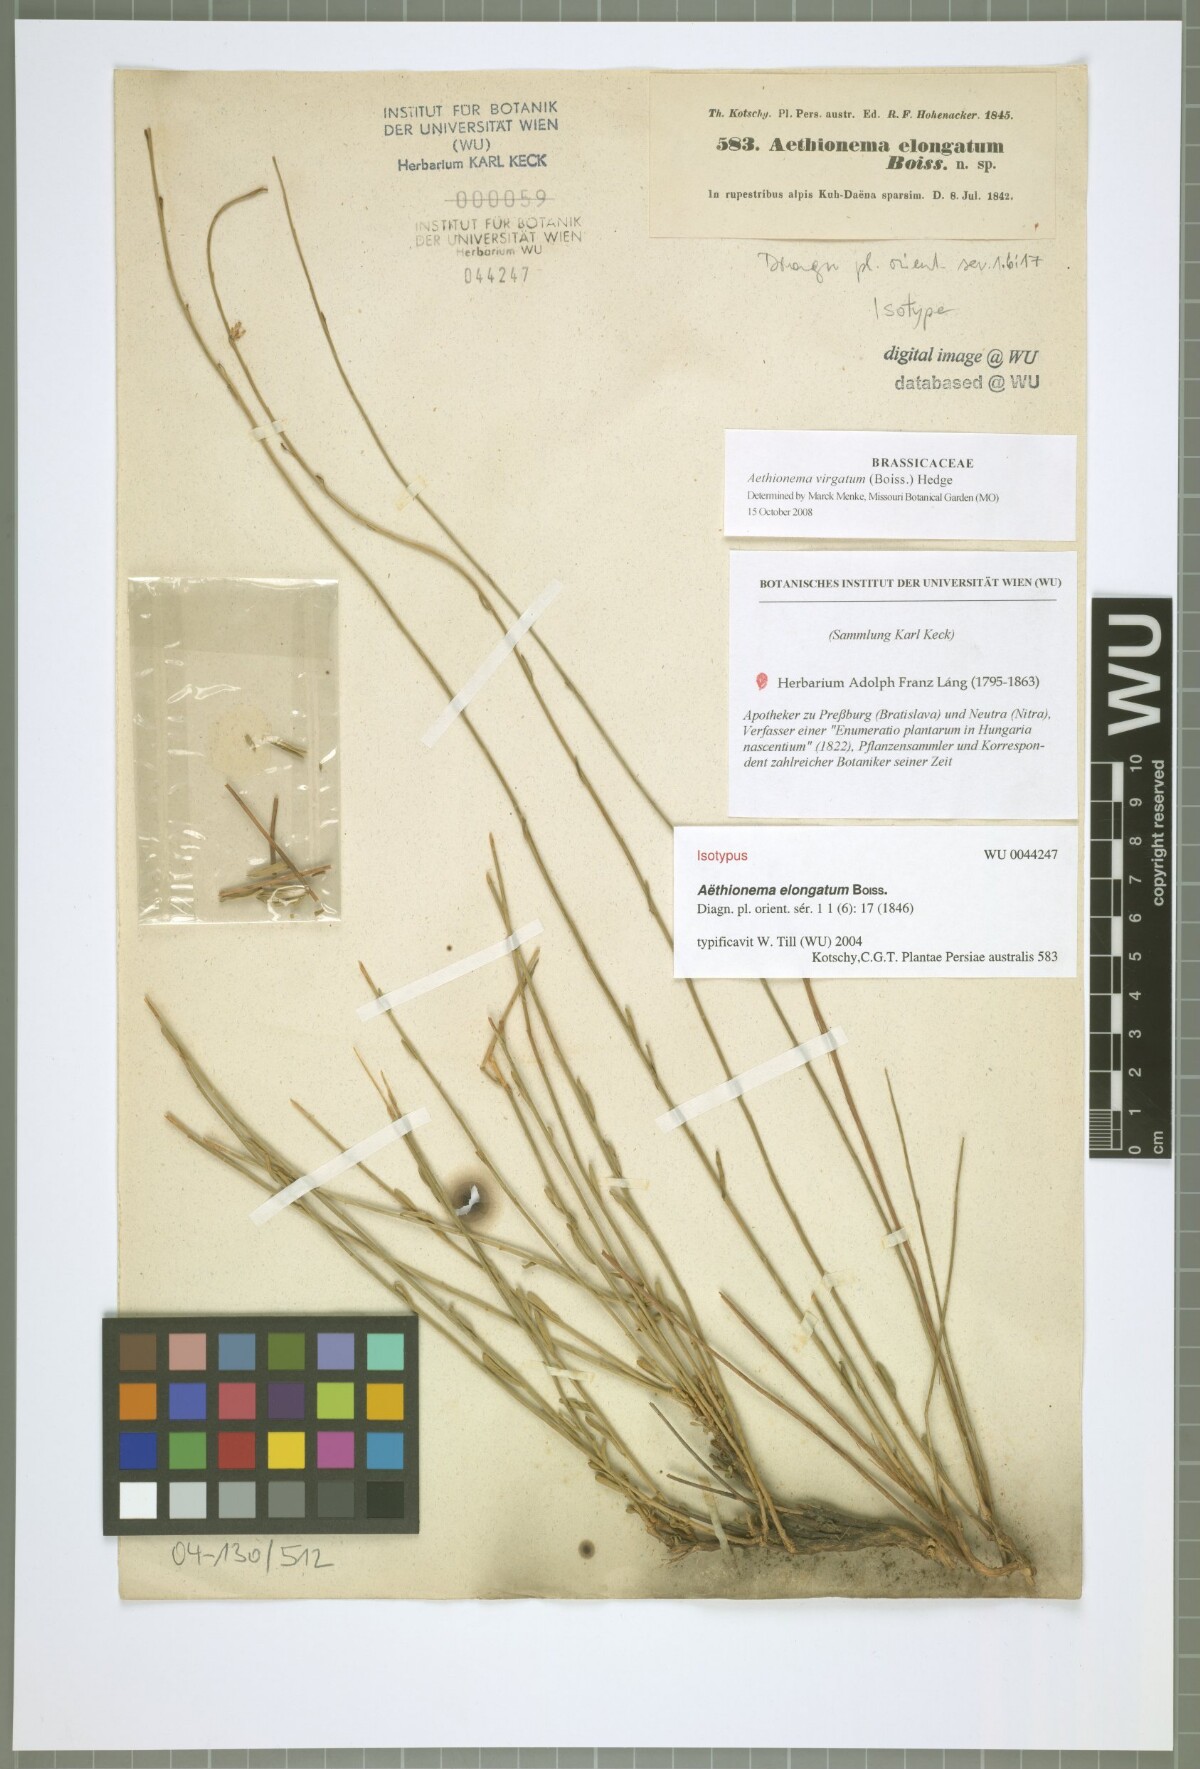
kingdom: Plantae
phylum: Tracheophyta
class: Magnoliopsida
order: Brassicales
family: Brassicaceae
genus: Aethionema
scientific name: Aethionema virgatum
